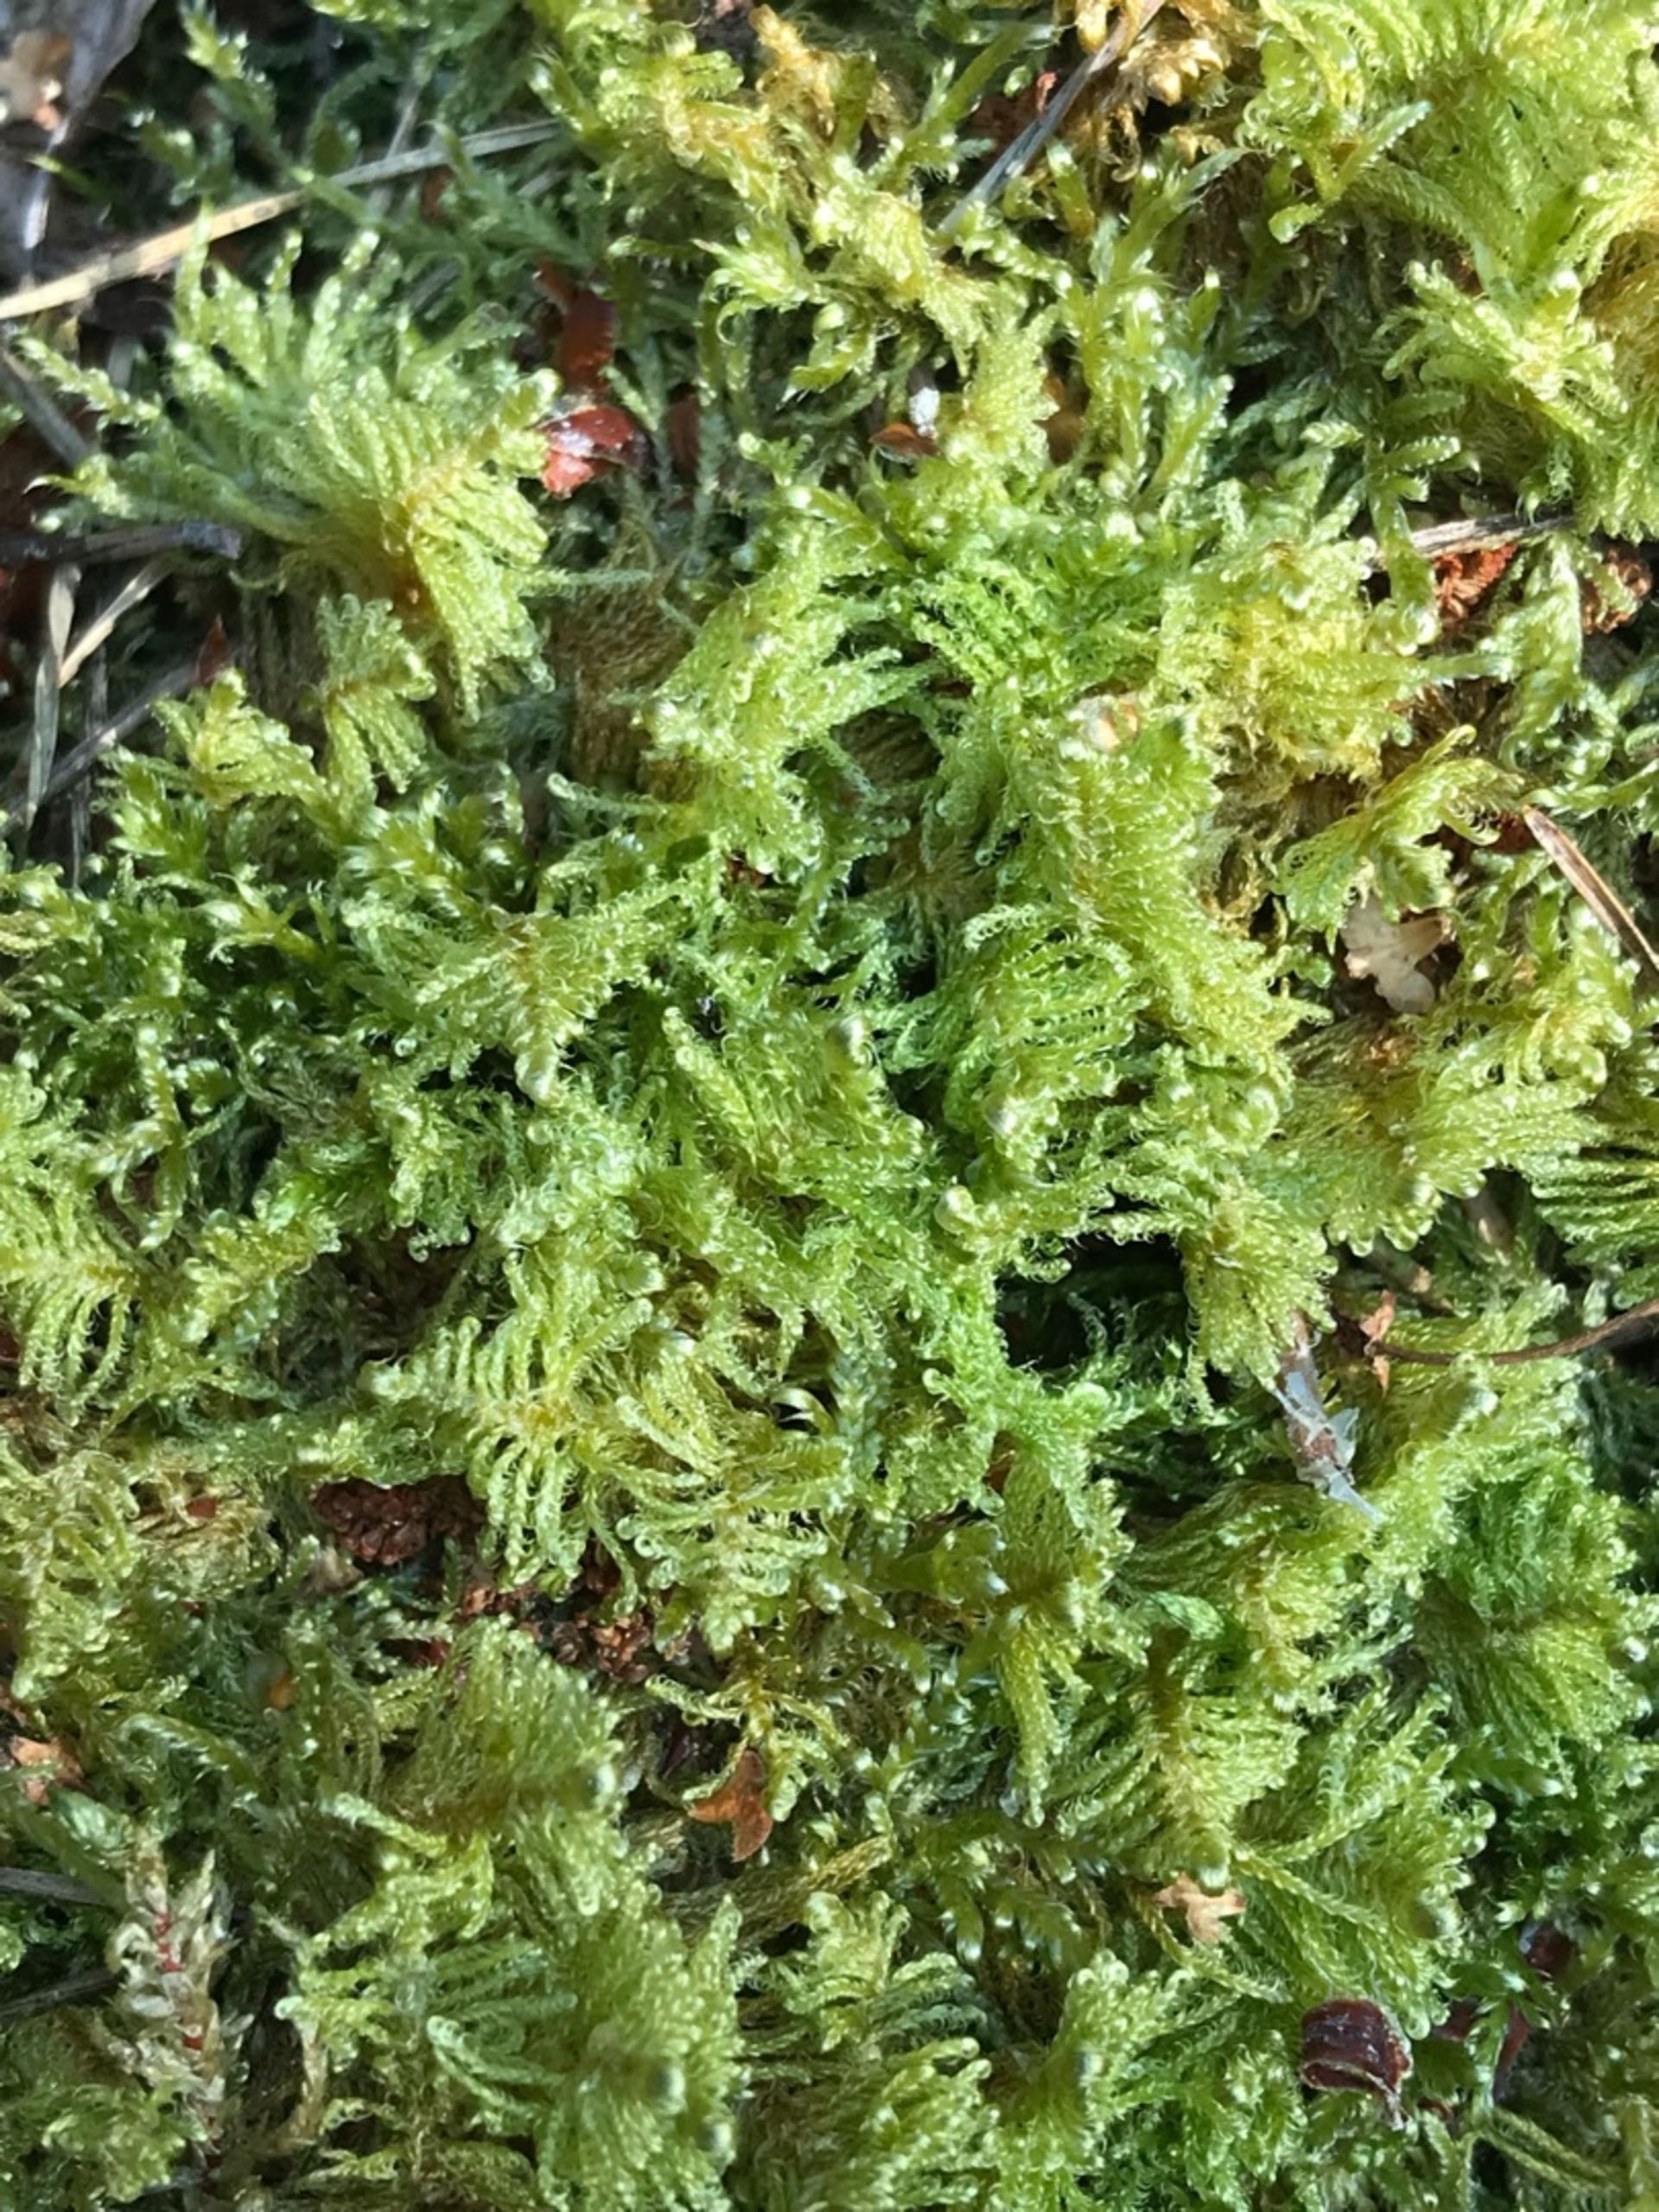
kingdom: Plantae
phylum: Bryophyta
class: Bryopsida
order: Hypnales
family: Pylaisiaceae
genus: Ptilium
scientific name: Ptilium crista-castrensis
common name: Fjer-kammos
